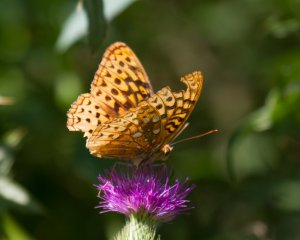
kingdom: Animalia
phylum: Arthropoda
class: Insecta
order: Lepidoptera
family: Nymphalidae
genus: Speyeria
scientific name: Speyeria cybele
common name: Great Spangled Fritillary
